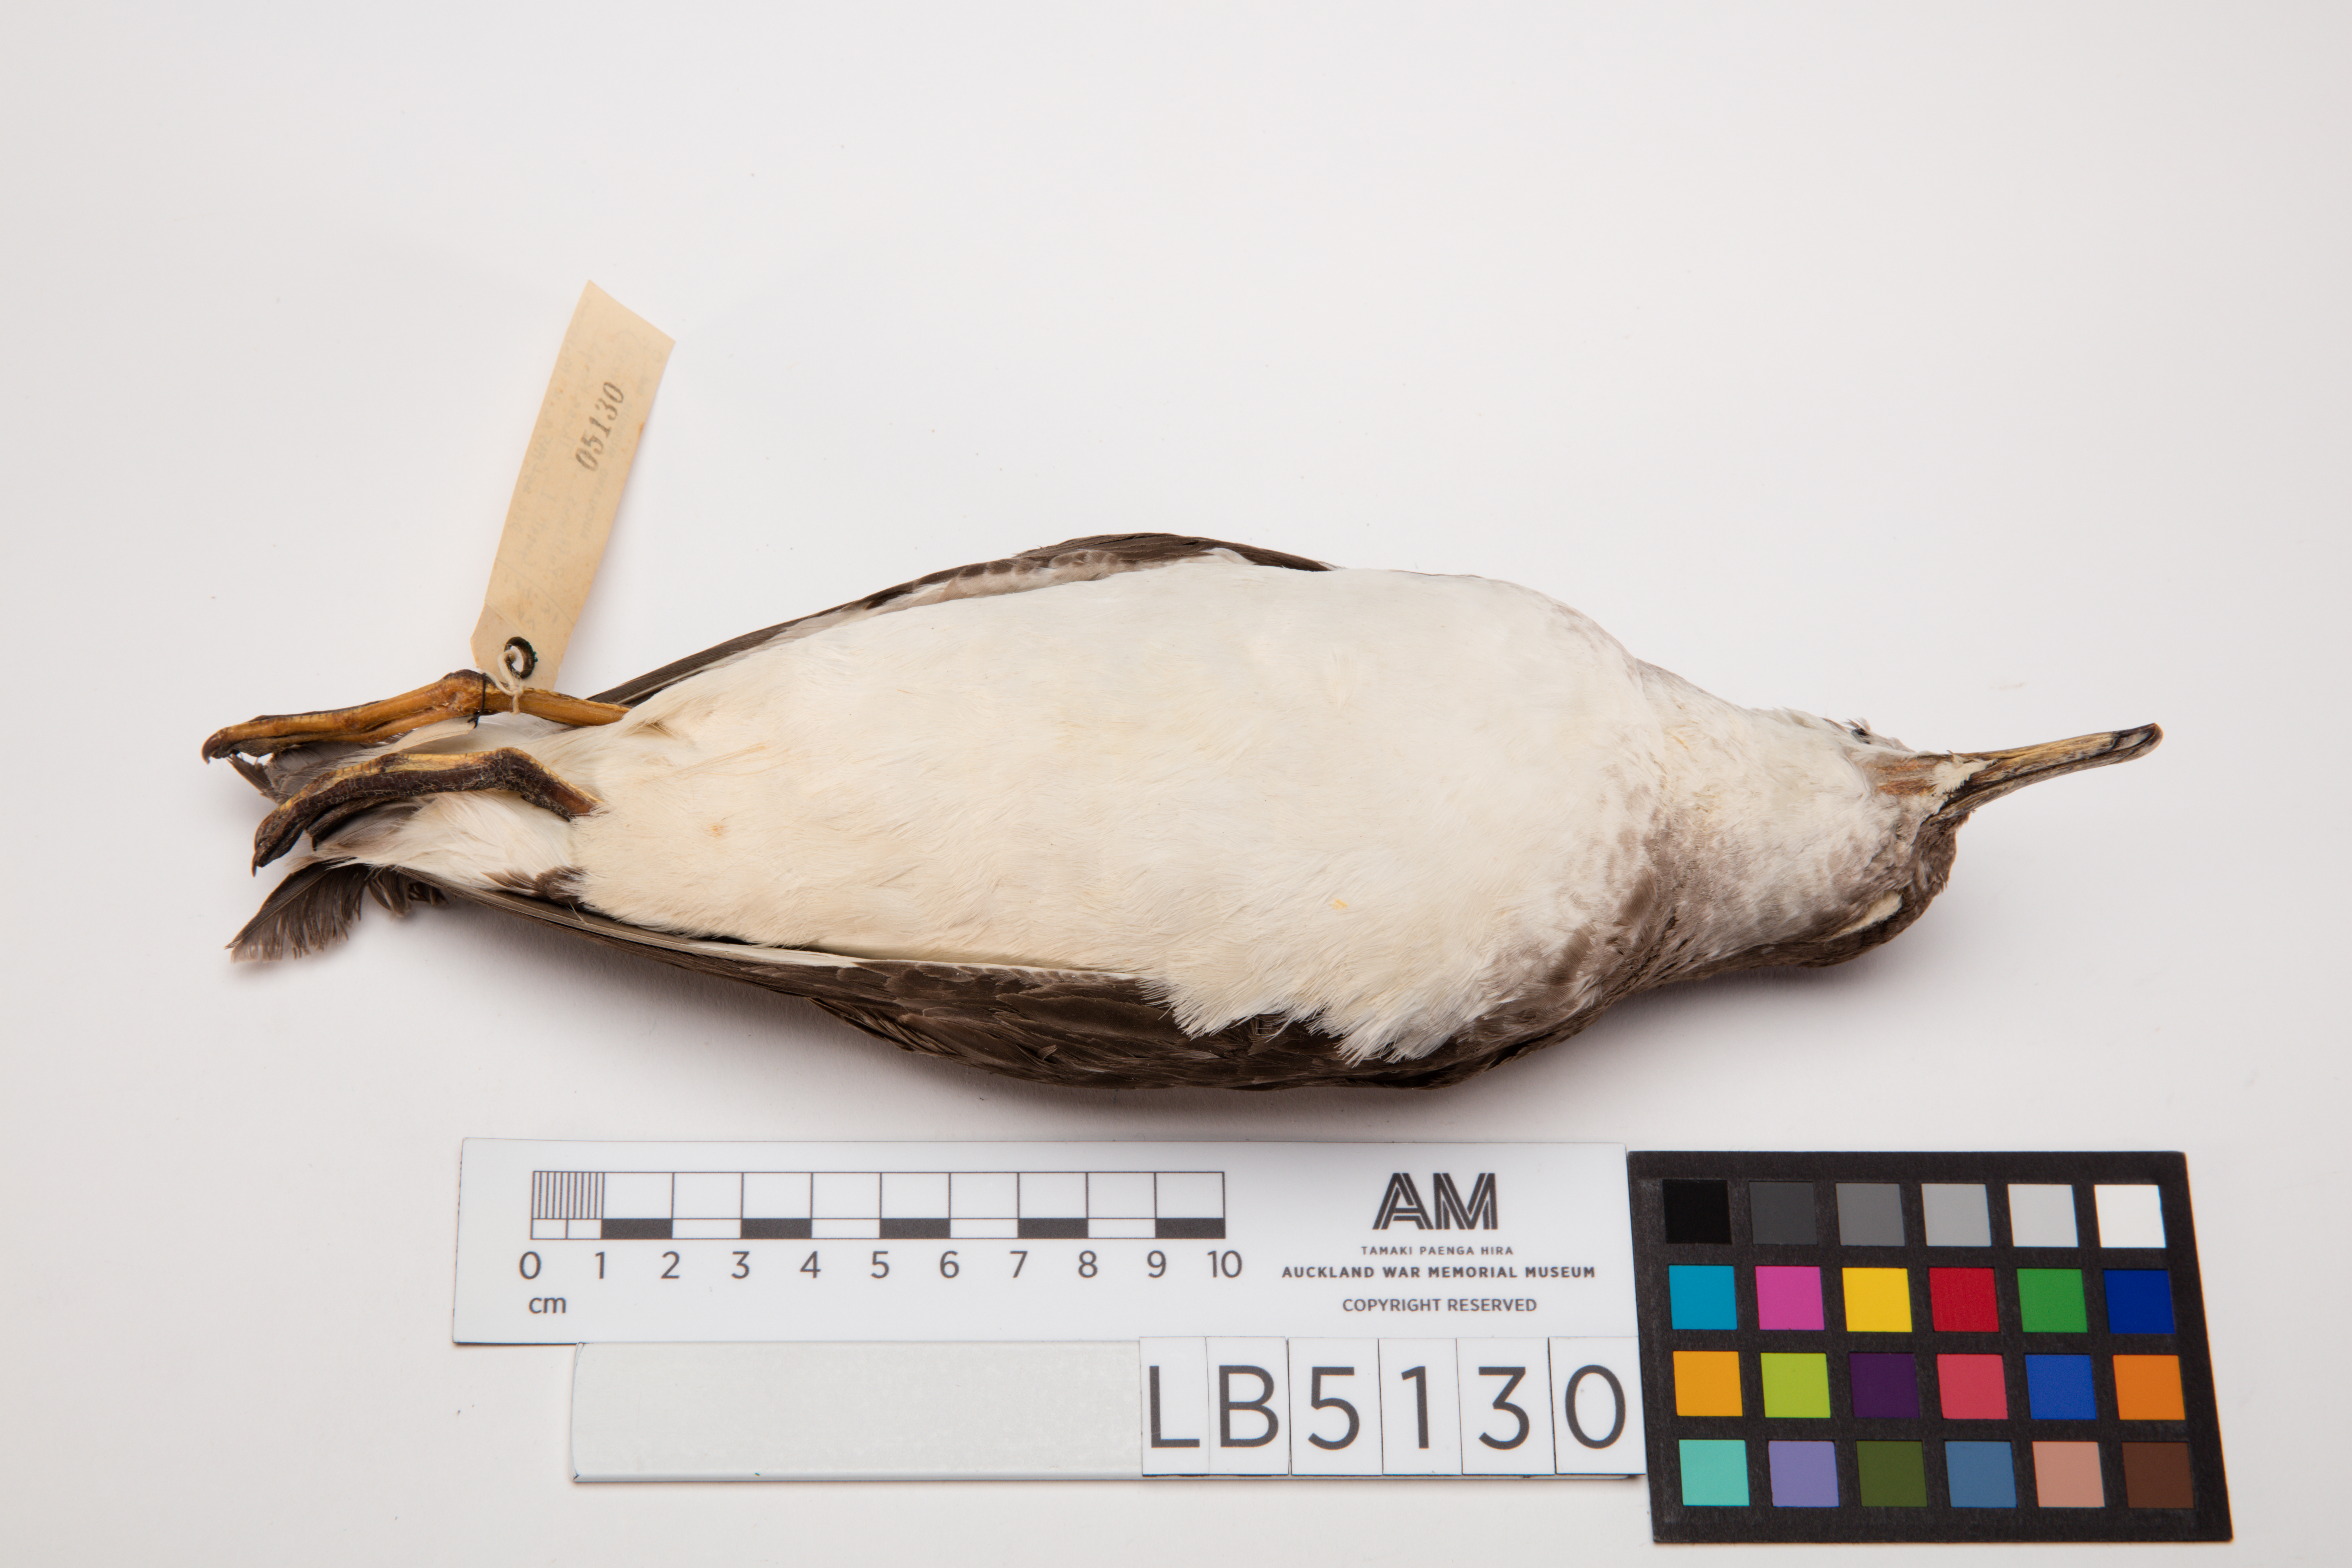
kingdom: Animalia
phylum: Chordata
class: Aves
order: Procellariiformes
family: Procellariidae
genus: Ardenna
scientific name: Ardenna
